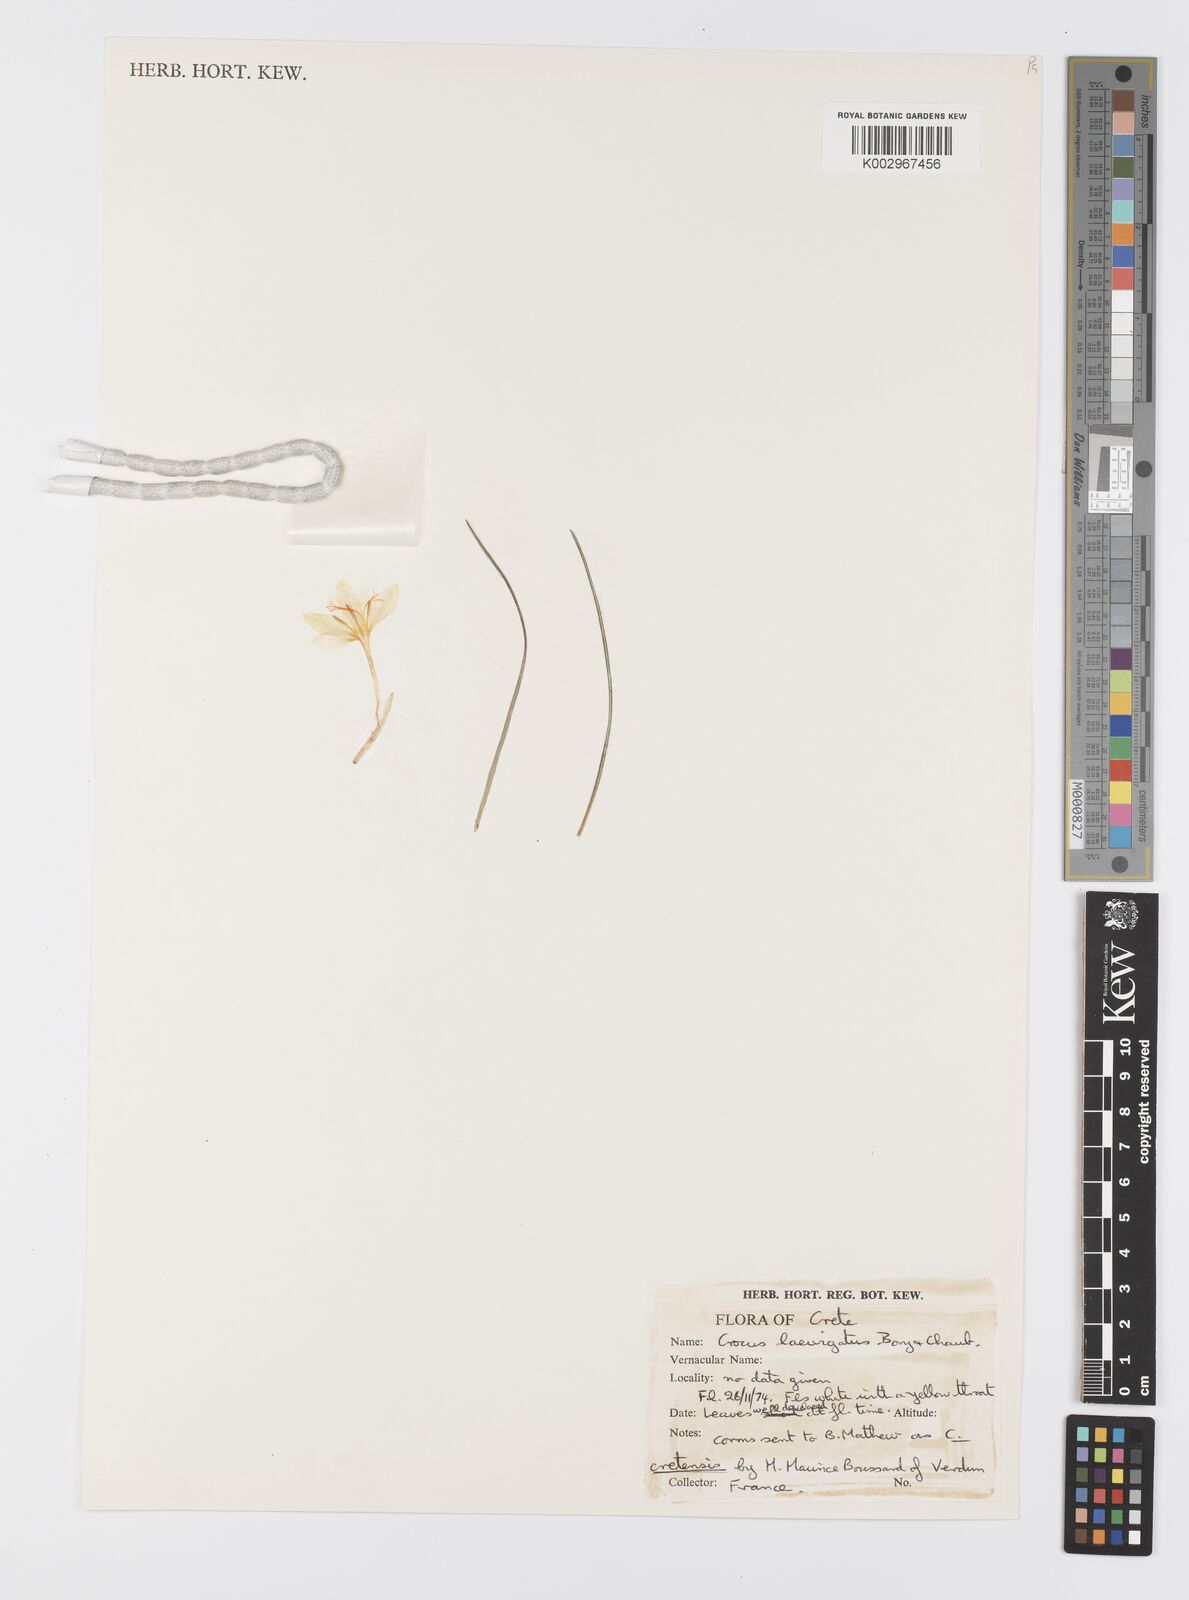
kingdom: Plantae
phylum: Tracheophyta
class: Liliopsida
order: Asparagales
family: Iridaceae
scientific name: Iridaceae
